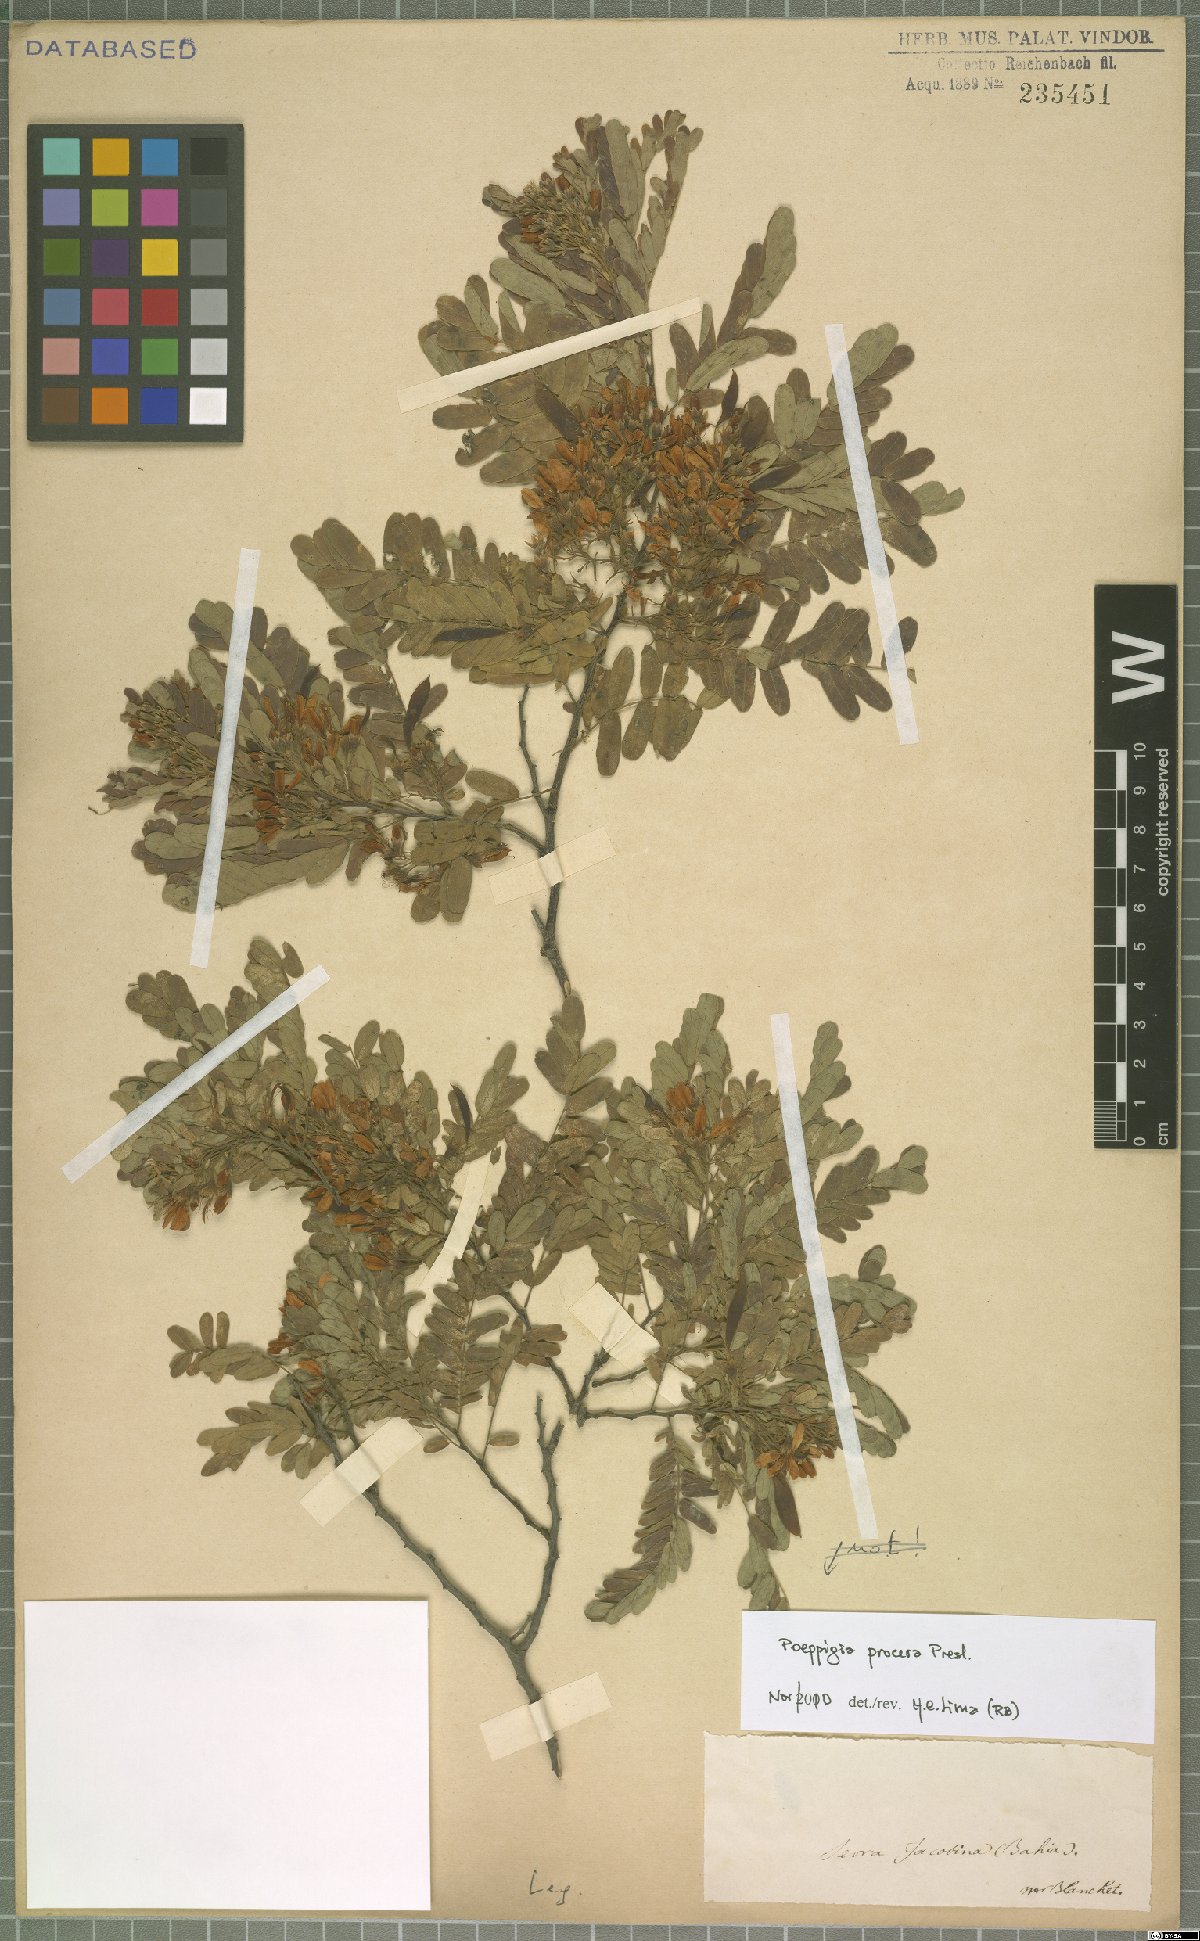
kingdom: Plantae
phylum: Tracheophyta
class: Magnoliopsida
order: Fabales
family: Fabaceae
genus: Poeppigia
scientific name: Poeppigia procera
